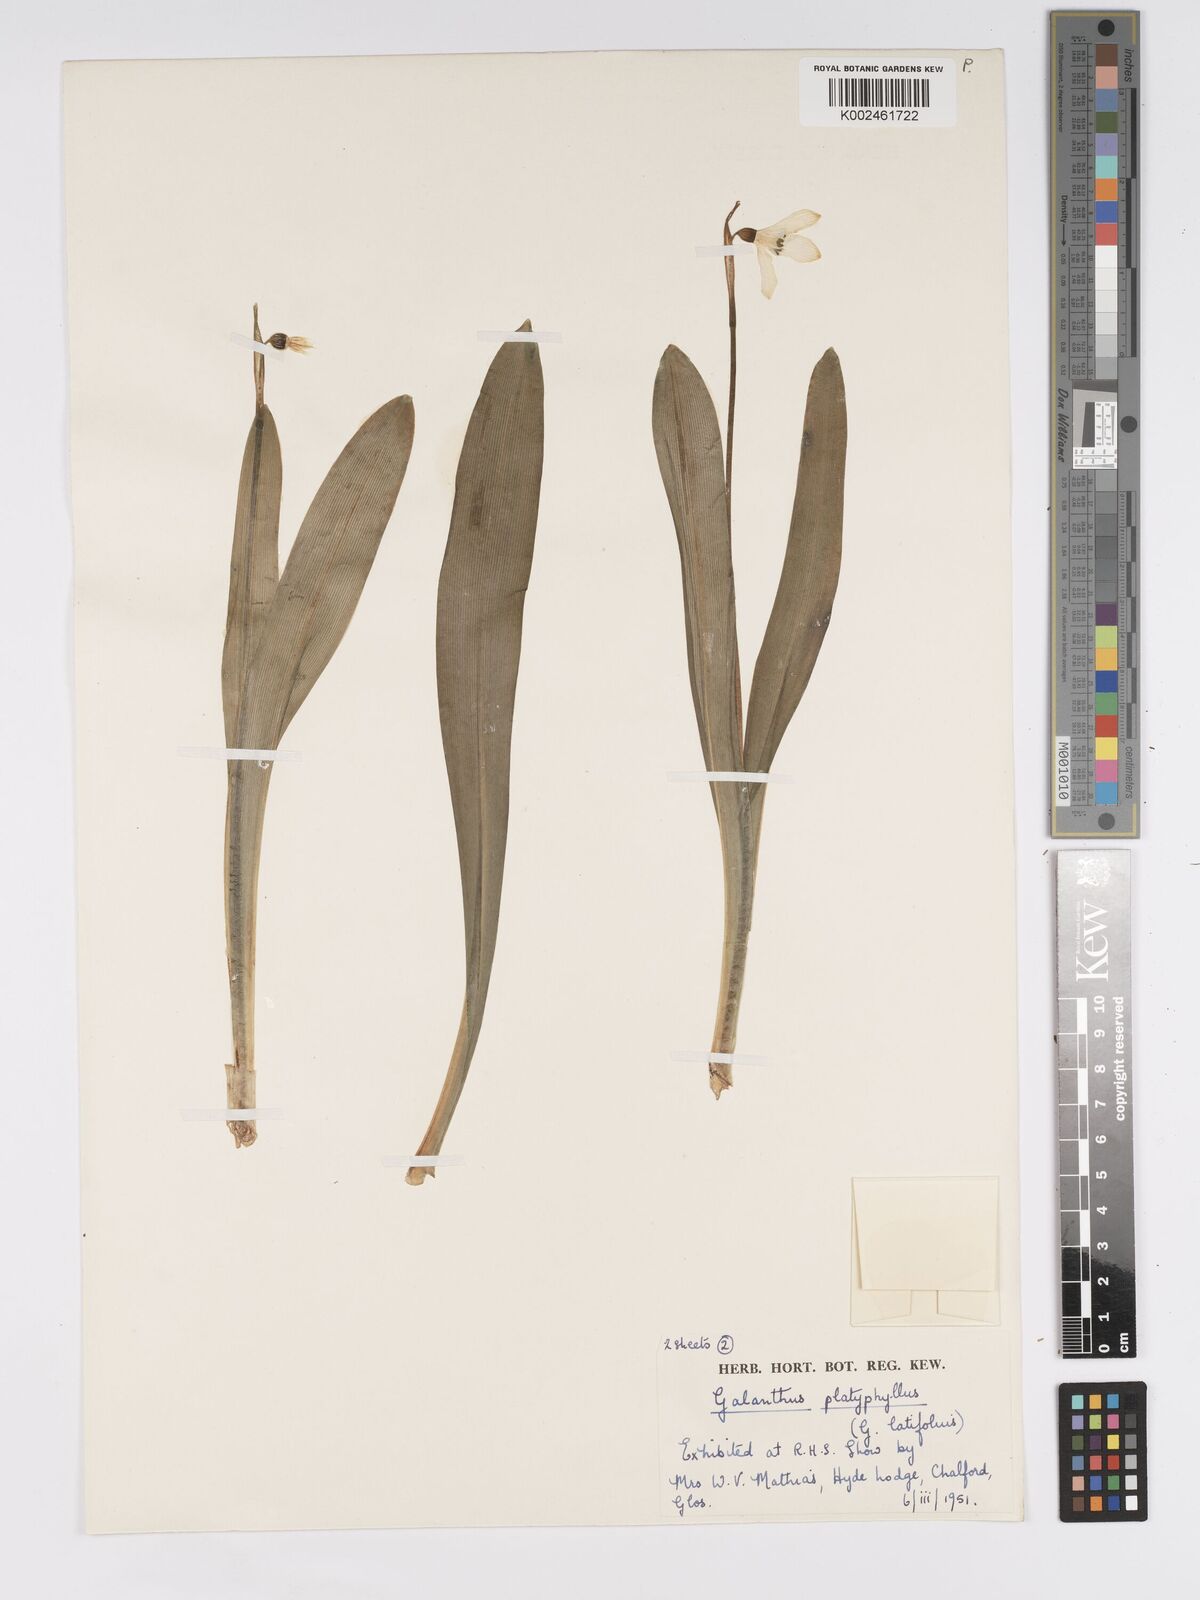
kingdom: Plantae
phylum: Tracheophyta
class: Liliopsida
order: Asparagales
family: Amaryllidaceae
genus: Galanthus
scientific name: Galanthus platyphyllus
